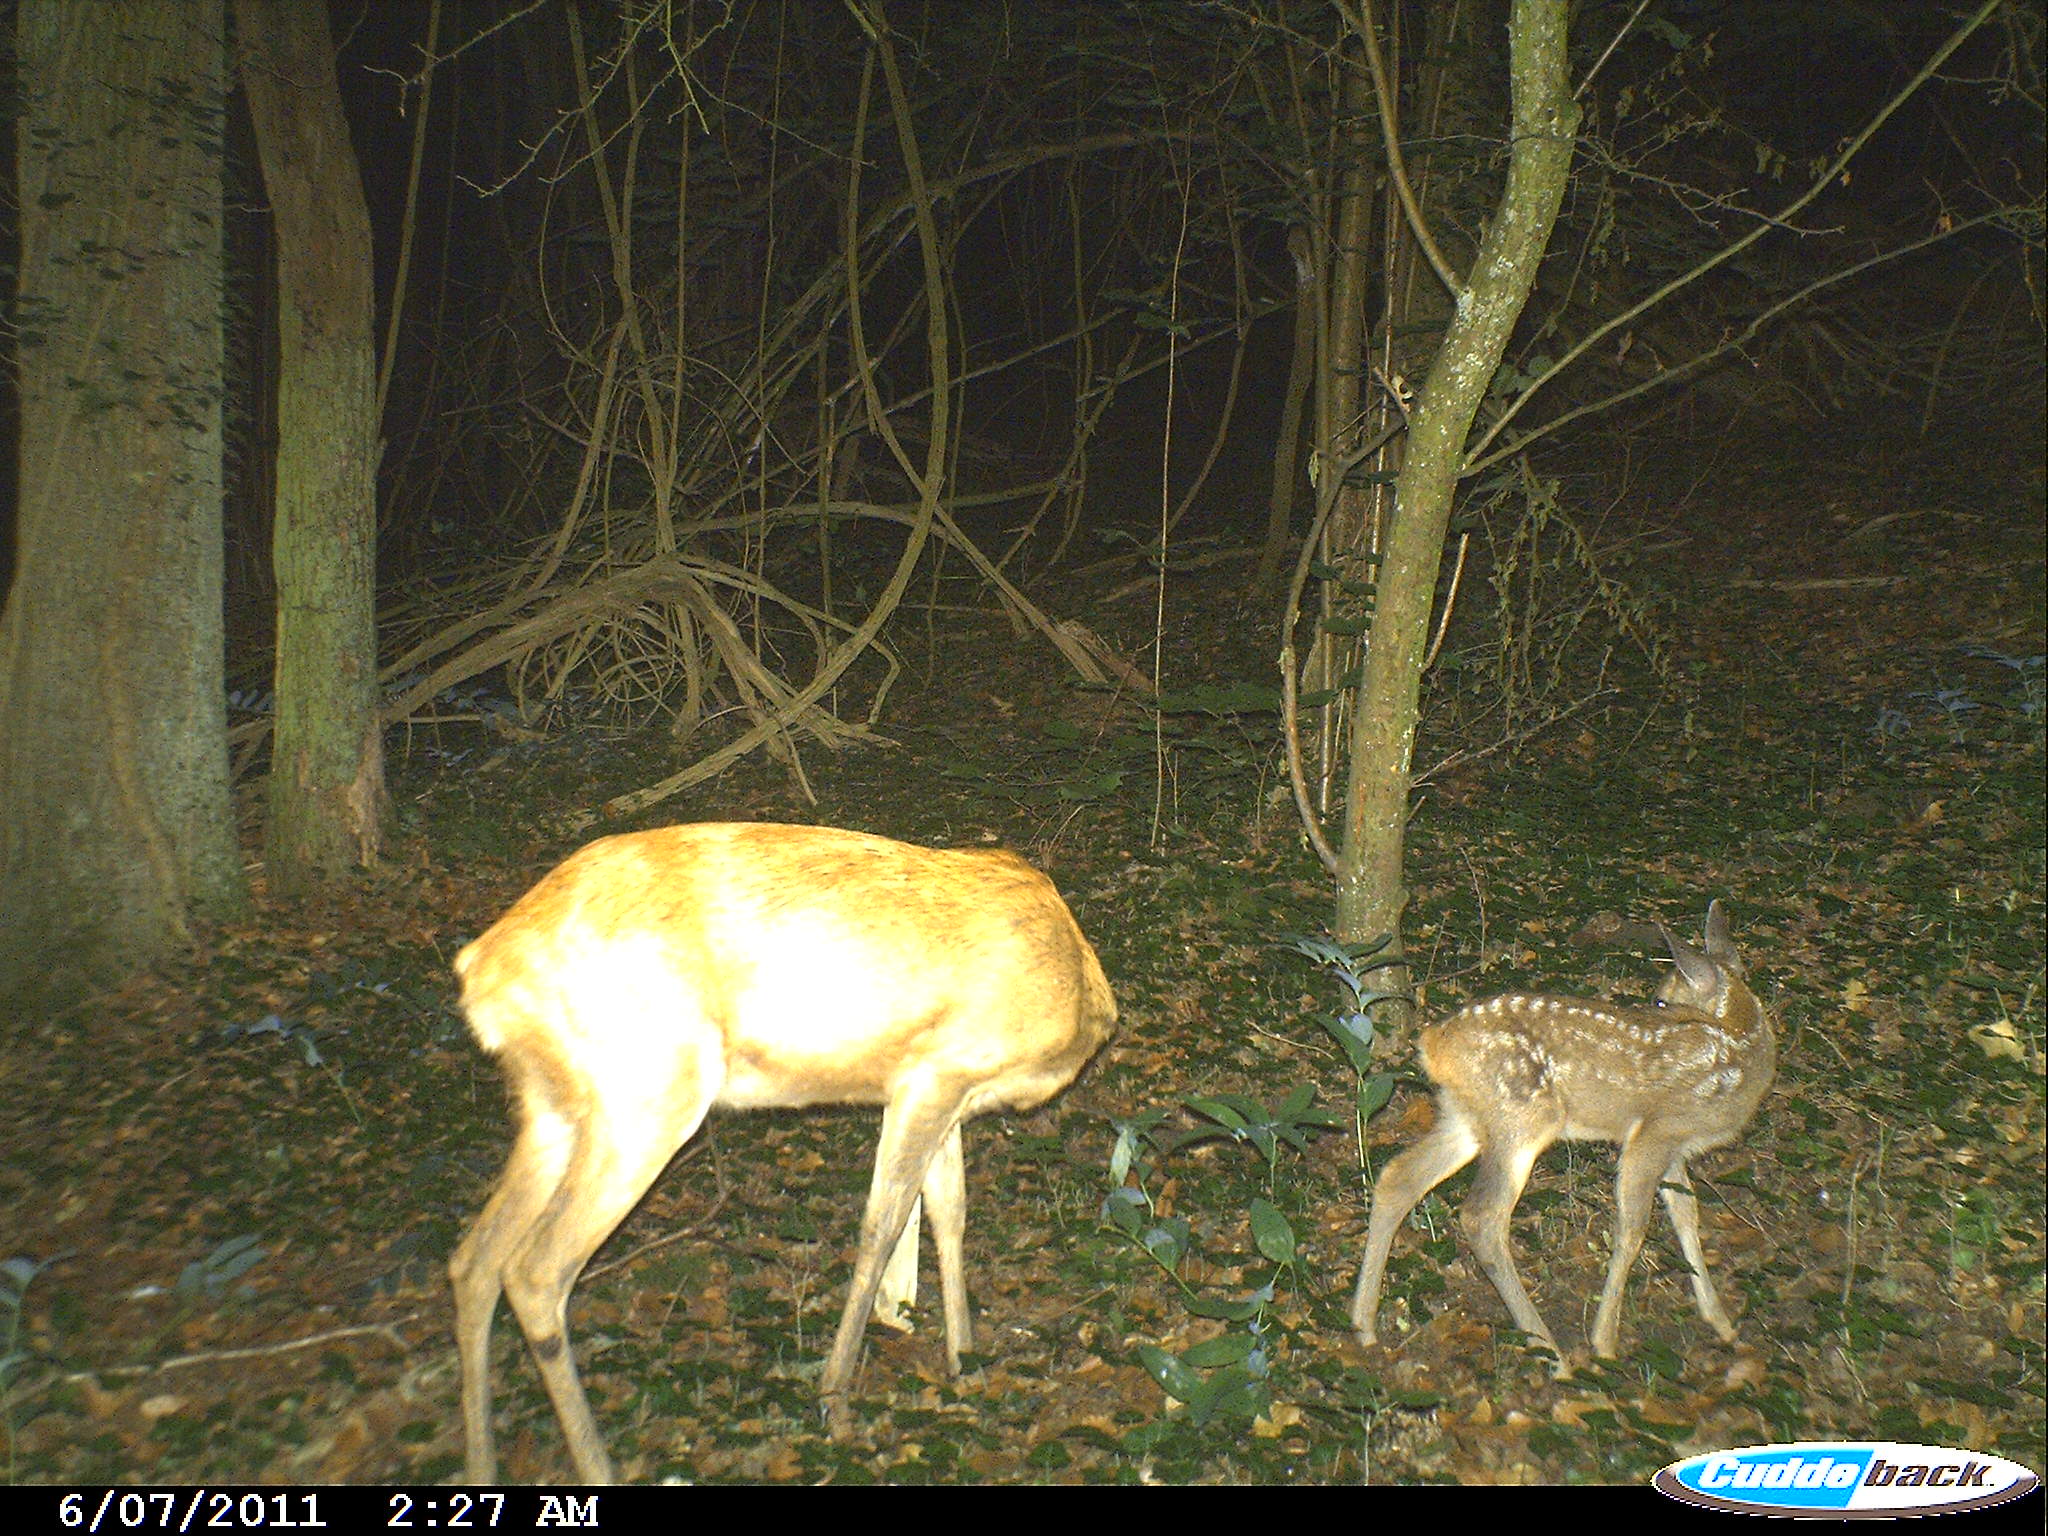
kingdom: Animalia
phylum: Chordata
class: Mammalia
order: Artiodactyla
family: Cervidae
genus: Capreolus
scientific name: Capreolus capreolus
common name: Western roe deer
